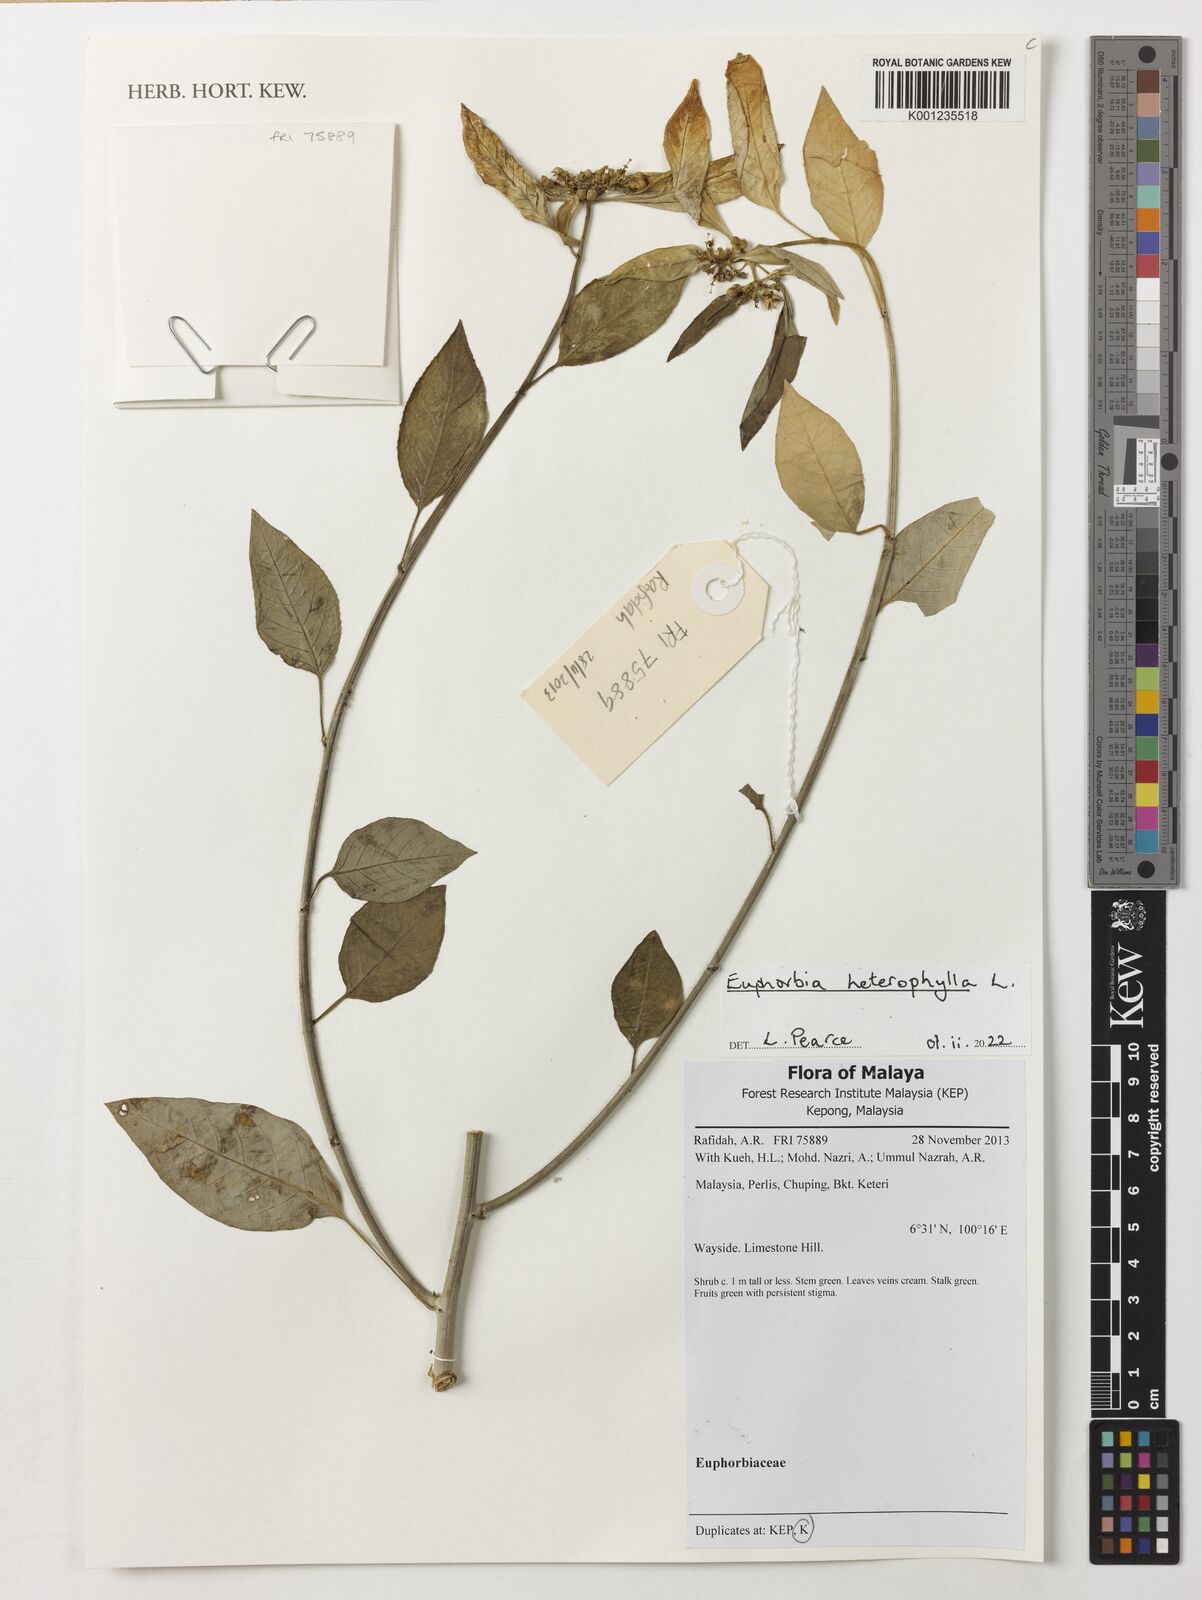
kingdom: Plantae
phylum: Tracheophyta
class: Magnoliopsida
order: Malpighiales
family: Euphorbiaceae
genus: Euphorbia
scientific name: Euphorbia heterophylla
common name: Mexican fireplant
